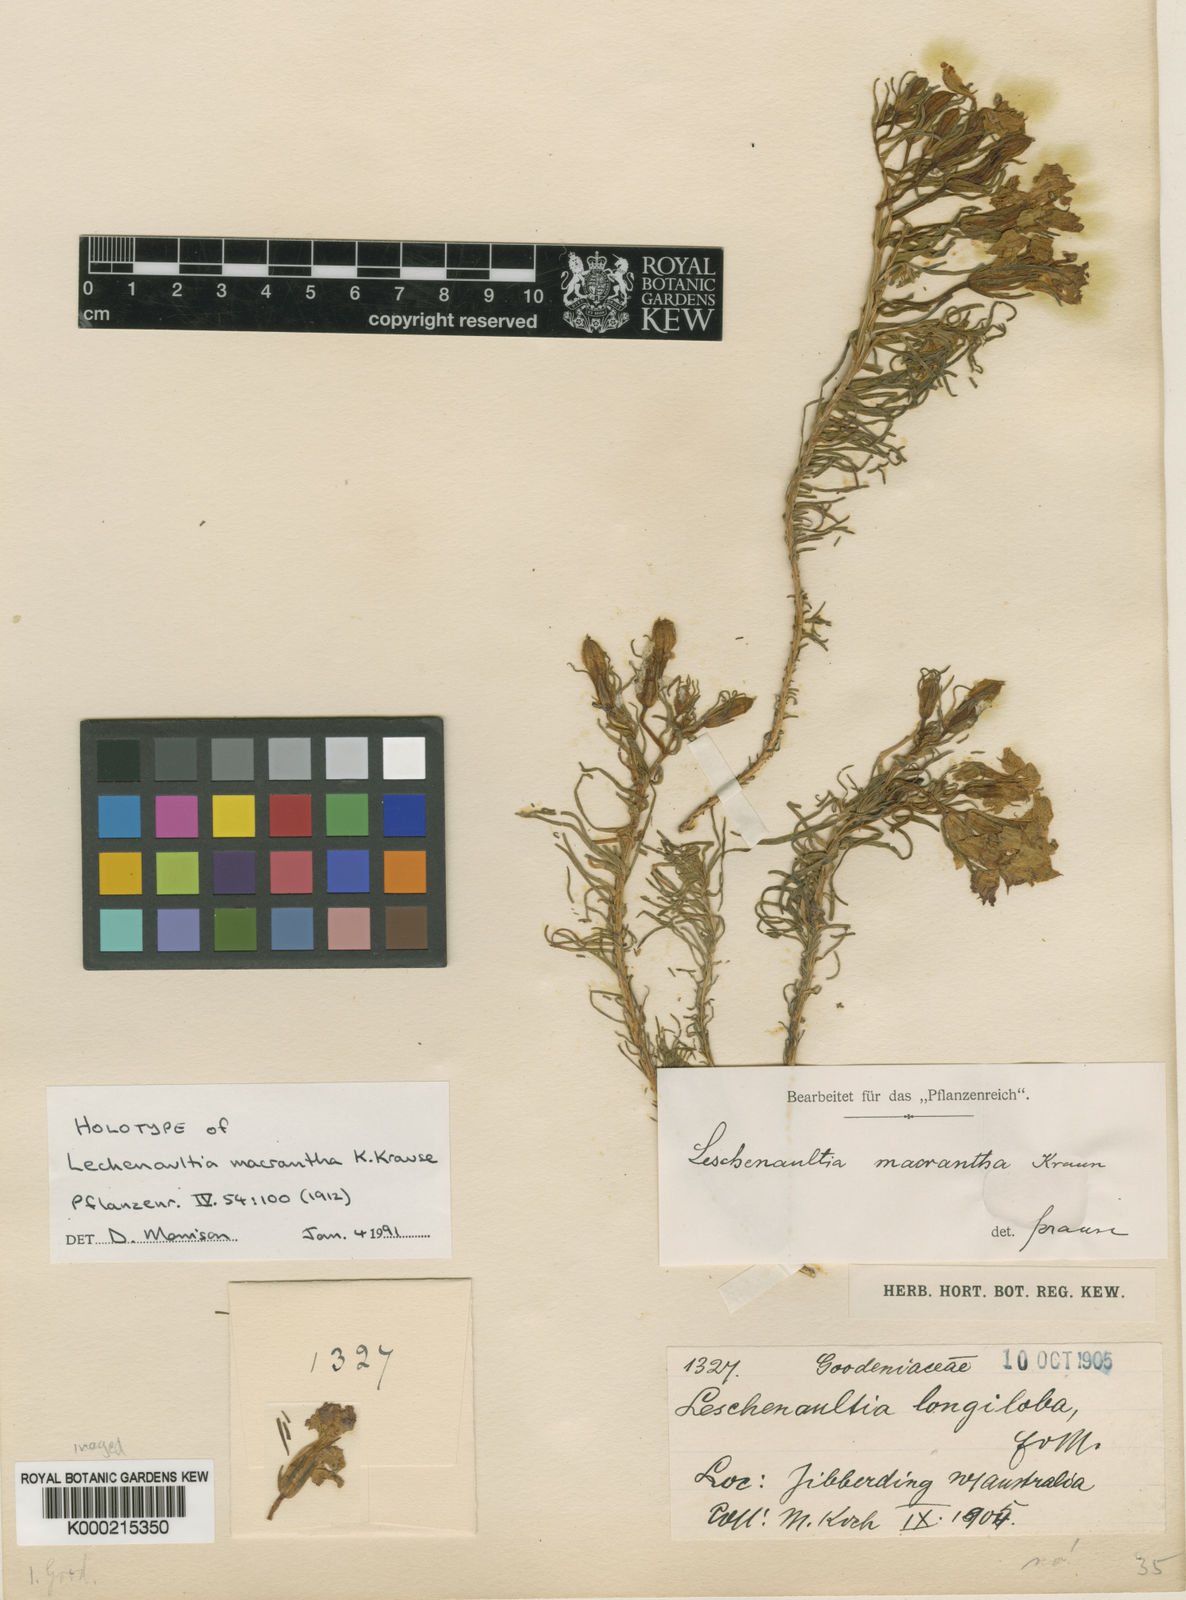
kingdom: Plantae
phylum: Tracheophyta
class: Magnoliopsida
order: Asterales
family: Goodeniaceae
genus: Leschenaultia
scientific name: Leschenaultia macrantha
